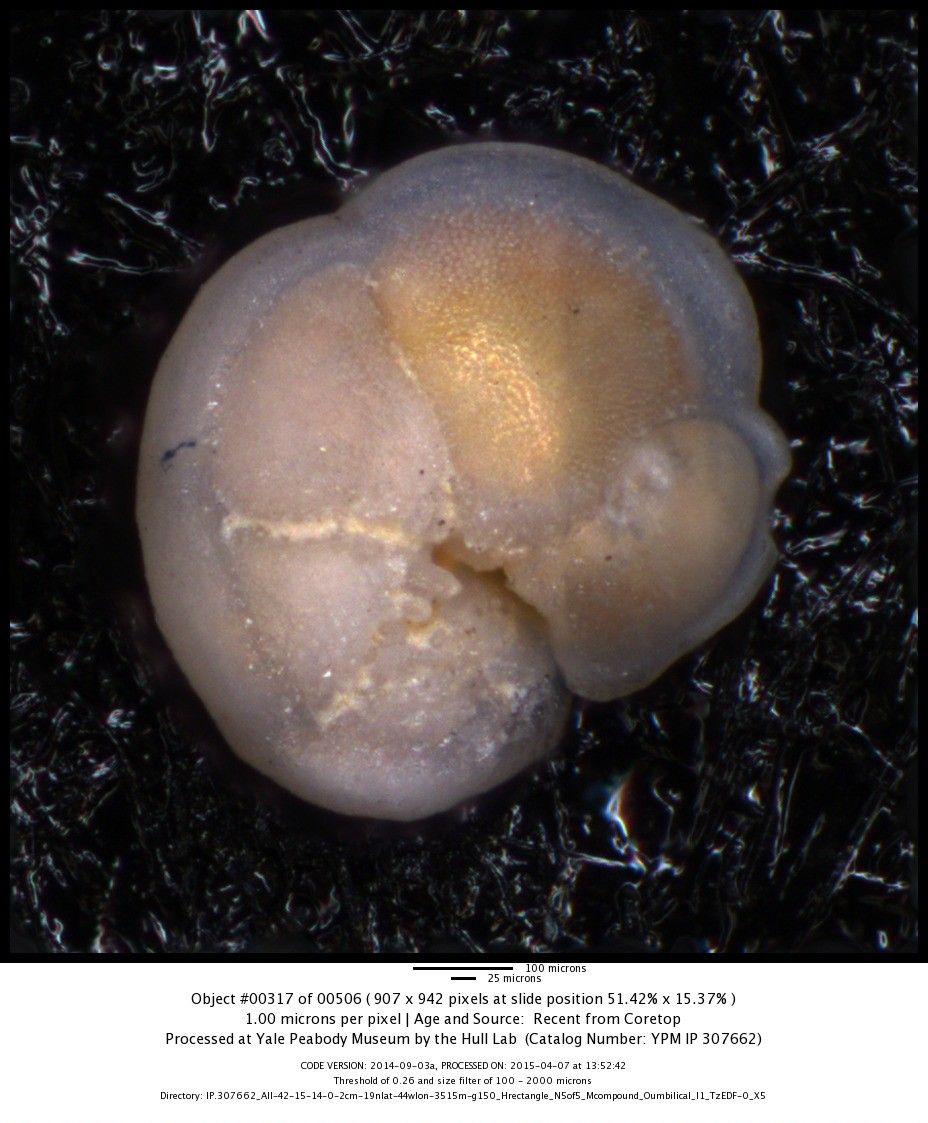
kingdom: Chromista
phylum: Foraminifera
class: Globothalamea
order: Rotaliida
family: Globorotaliidae
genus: Globorotalia
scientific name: Globorotalia menardii
